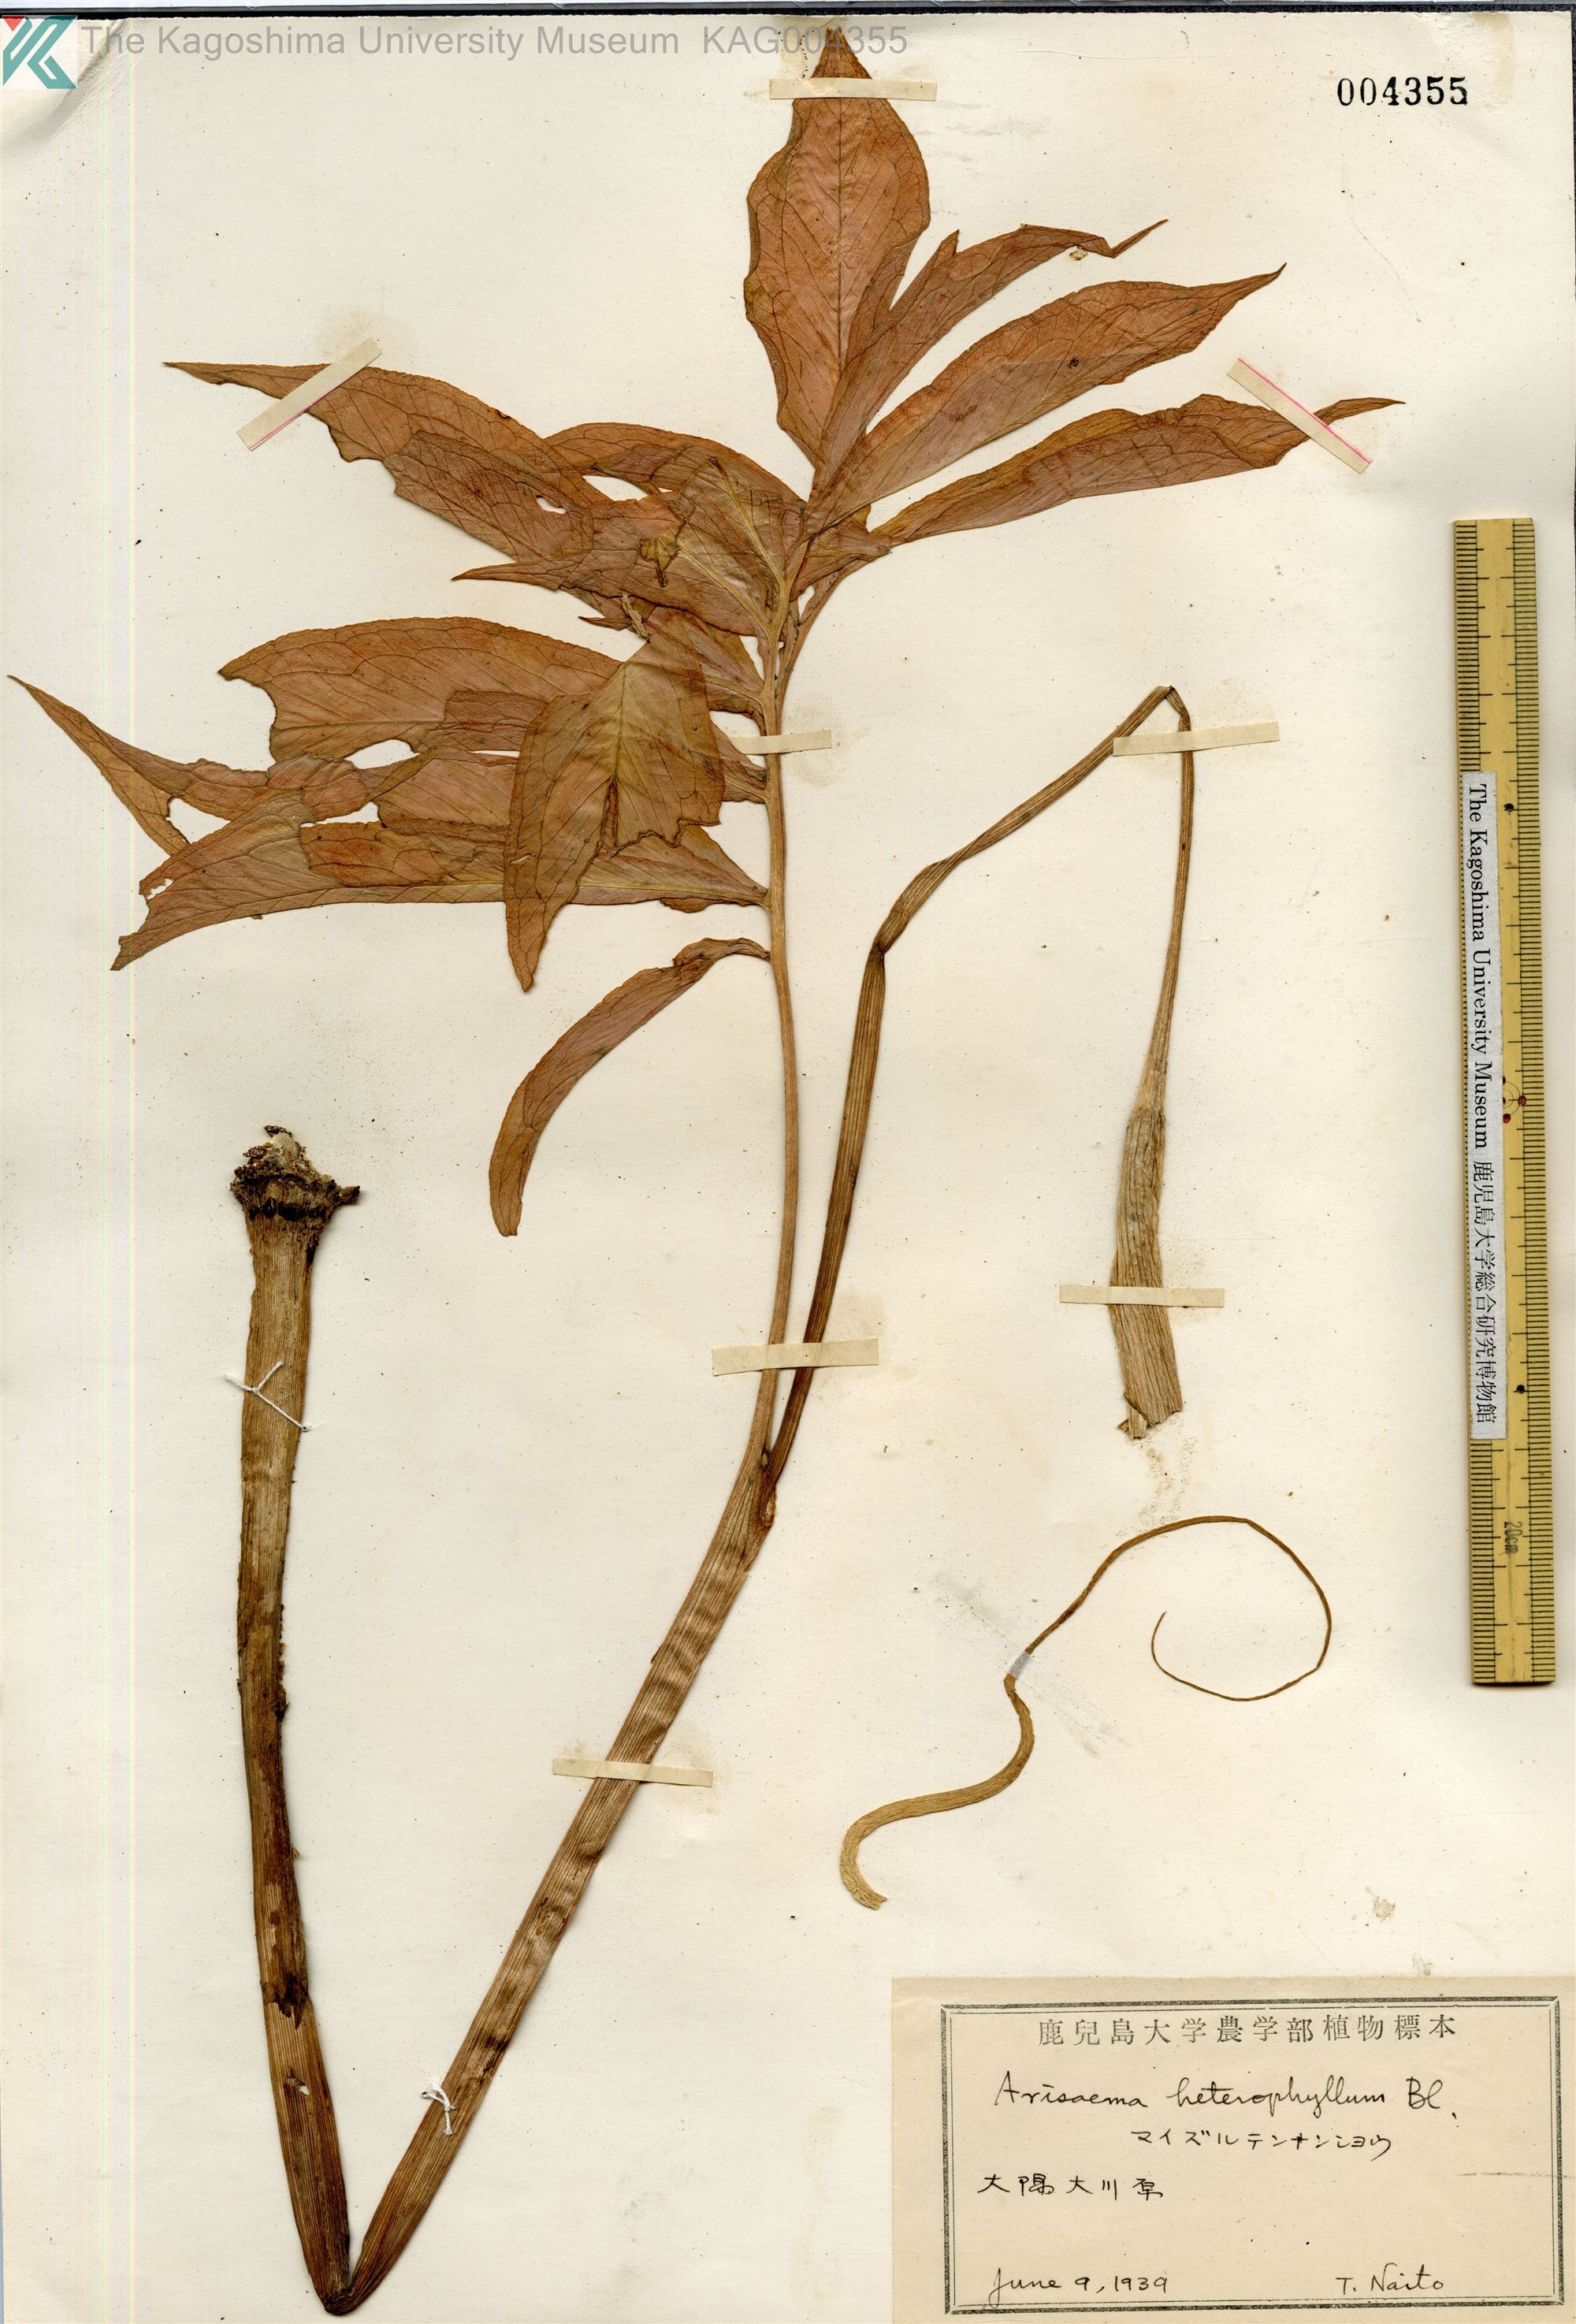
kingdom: Plantae
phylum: Tracheophyta
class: Liliopsida
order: Alismatales
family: Araceae
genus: Arisaema
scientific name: Arisaema heterophyllum
